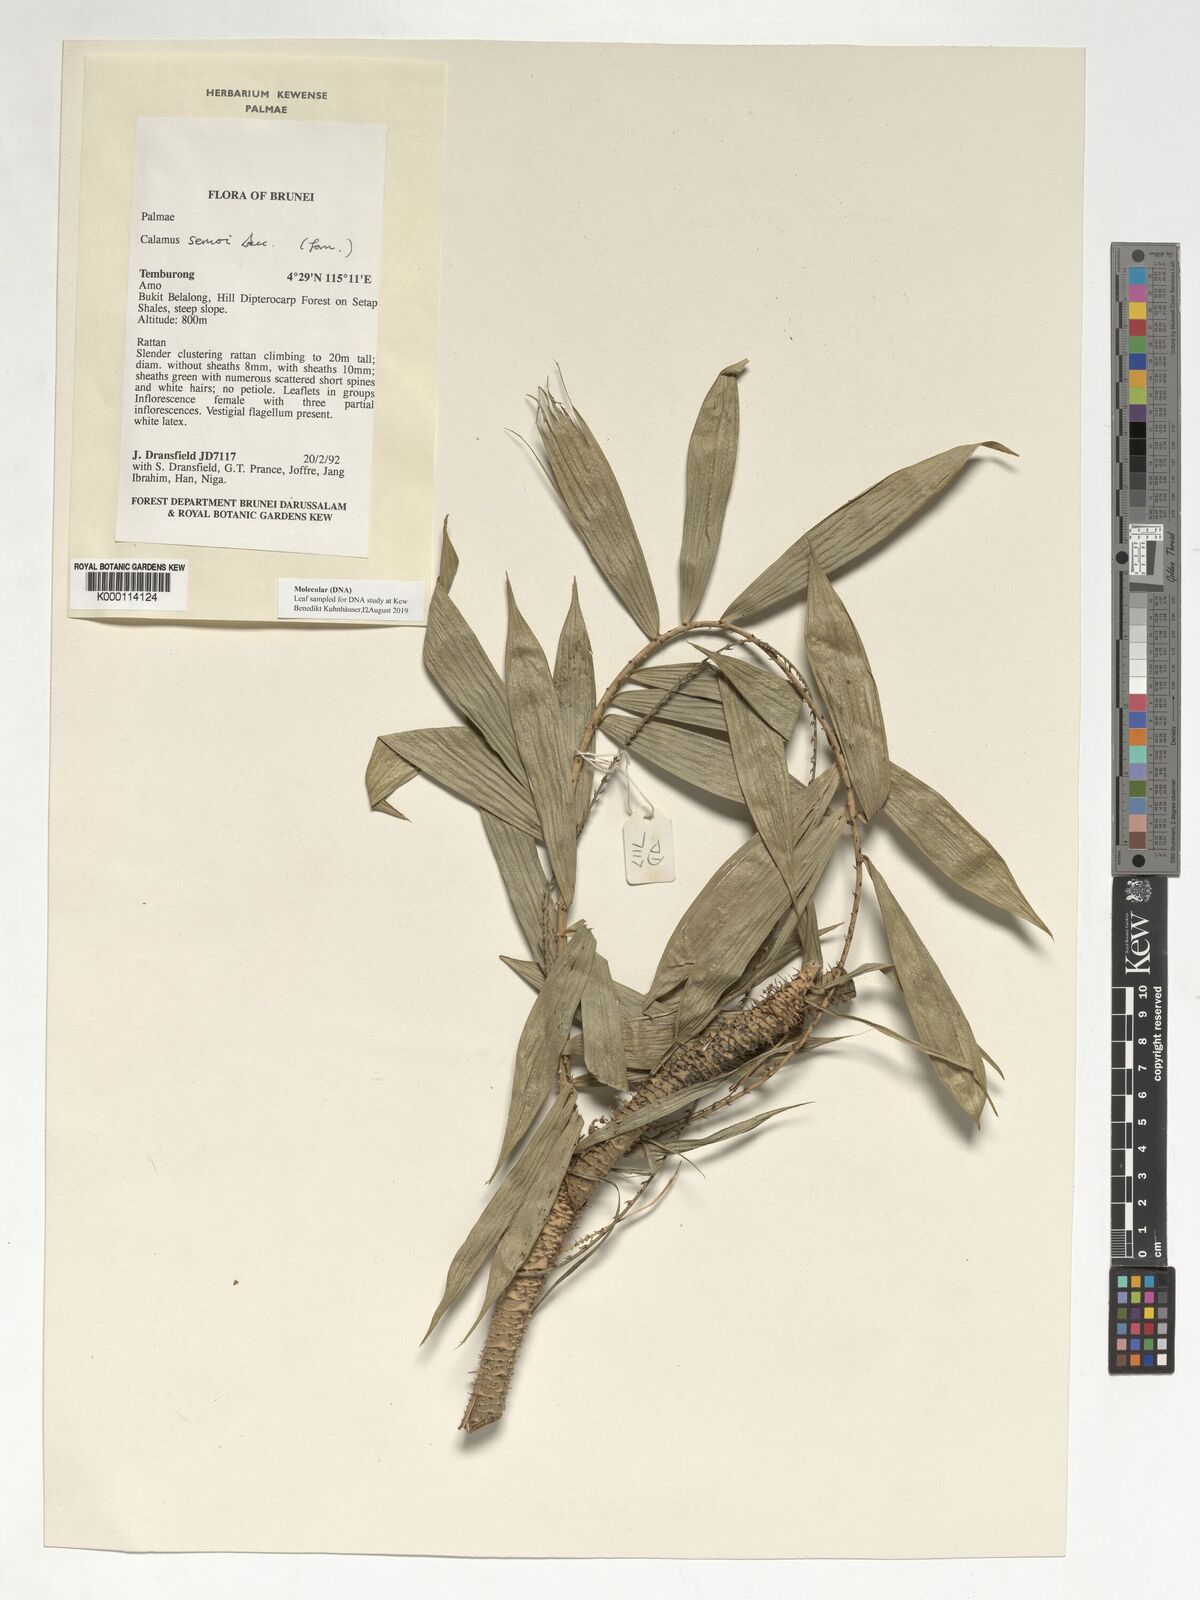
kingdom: Plantae
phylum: Tracheophyta
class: Liliopsida
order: Arecales
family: Arecaceae
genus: Calamus
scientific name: Calamus erioacanthus
